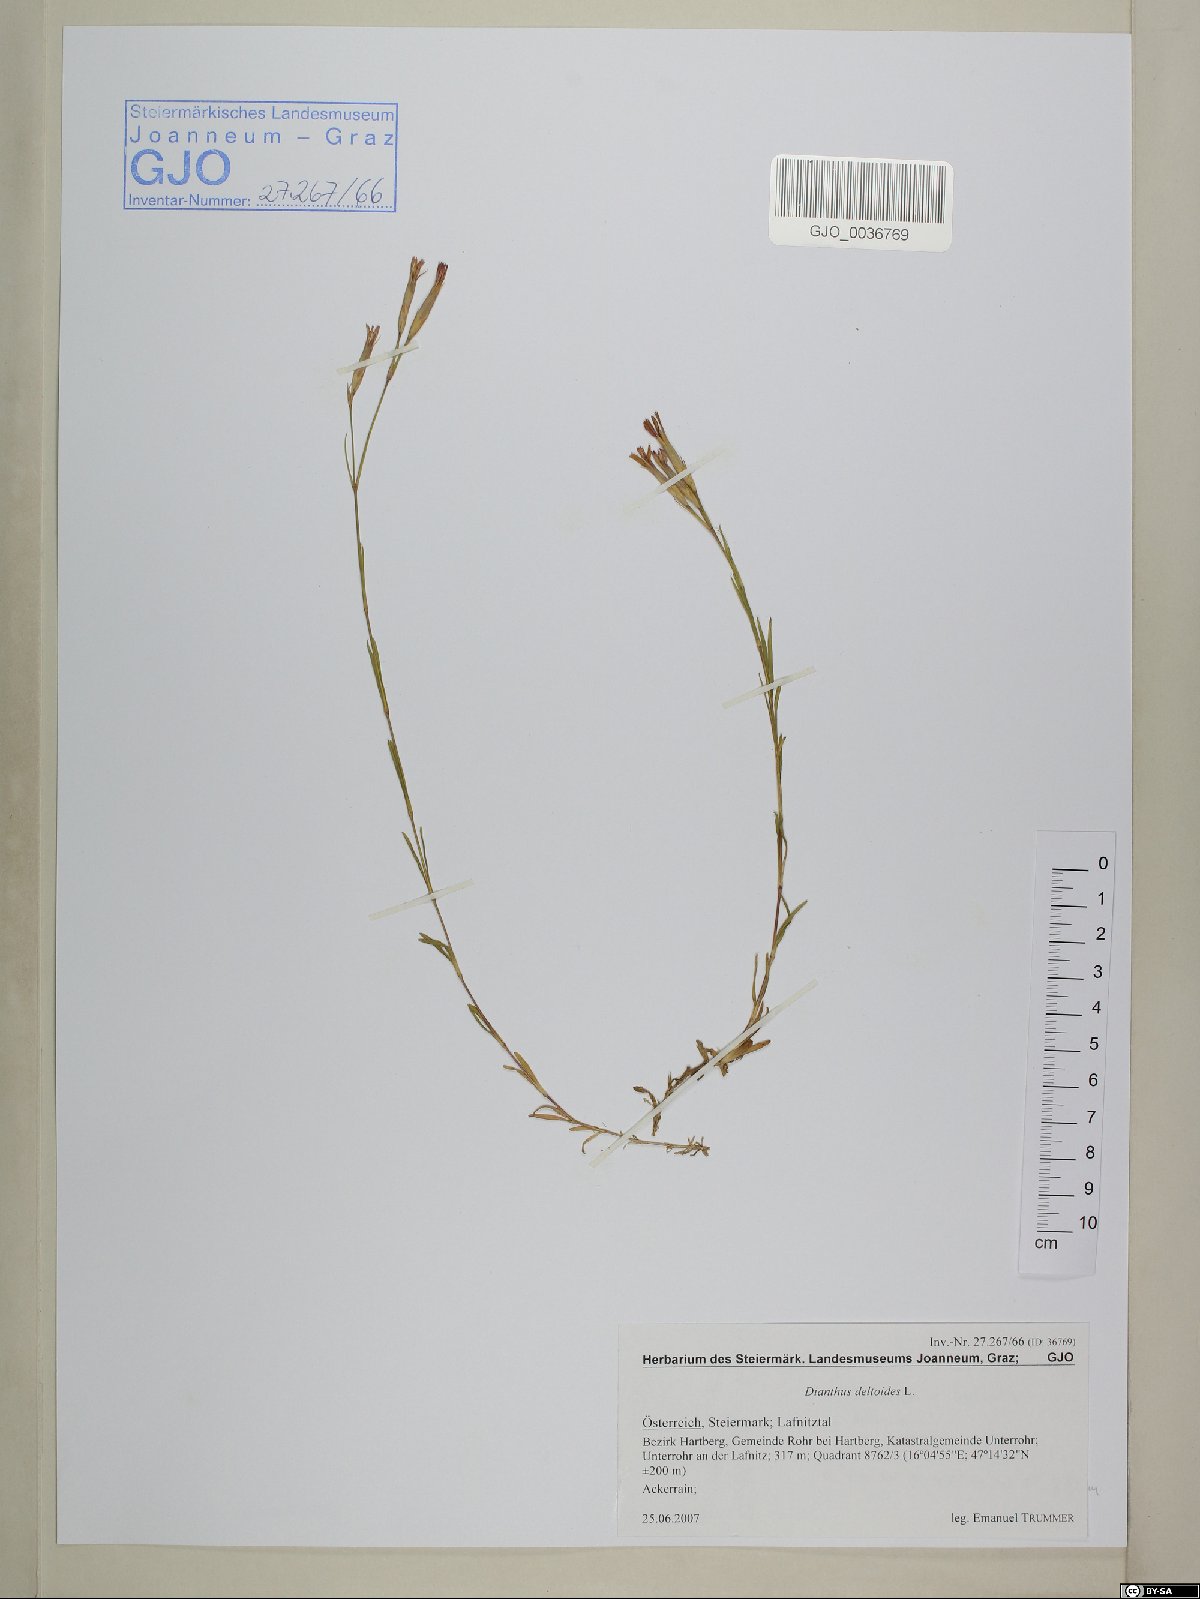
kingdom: Plantae
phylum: Tracheophyta
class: Magnoliopsida
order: Caryophyllales
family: Caryophyllaceae
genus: Dianthus
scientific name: Dianthus deltoides
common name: Maiden pink
